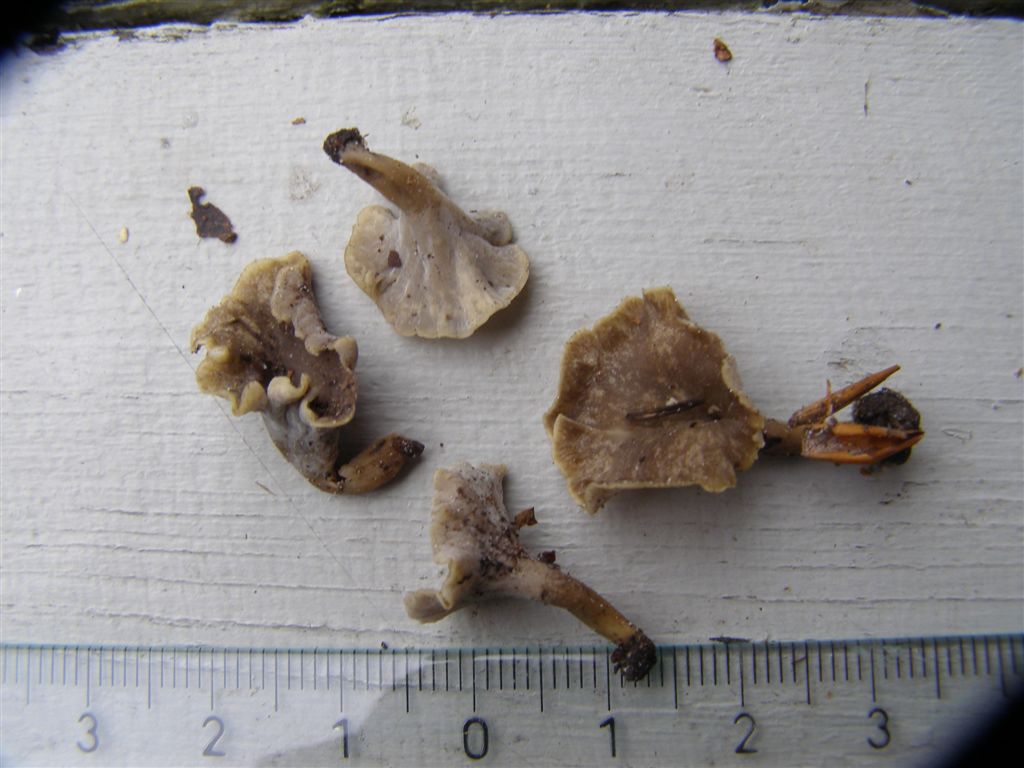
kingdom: Fungi
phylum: Basidiomycota
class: Agaricomycetes
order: Cantharellales
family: Hydnaceae
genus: Craterellus
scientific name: Craterellus undulatus
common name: liden kantarel
